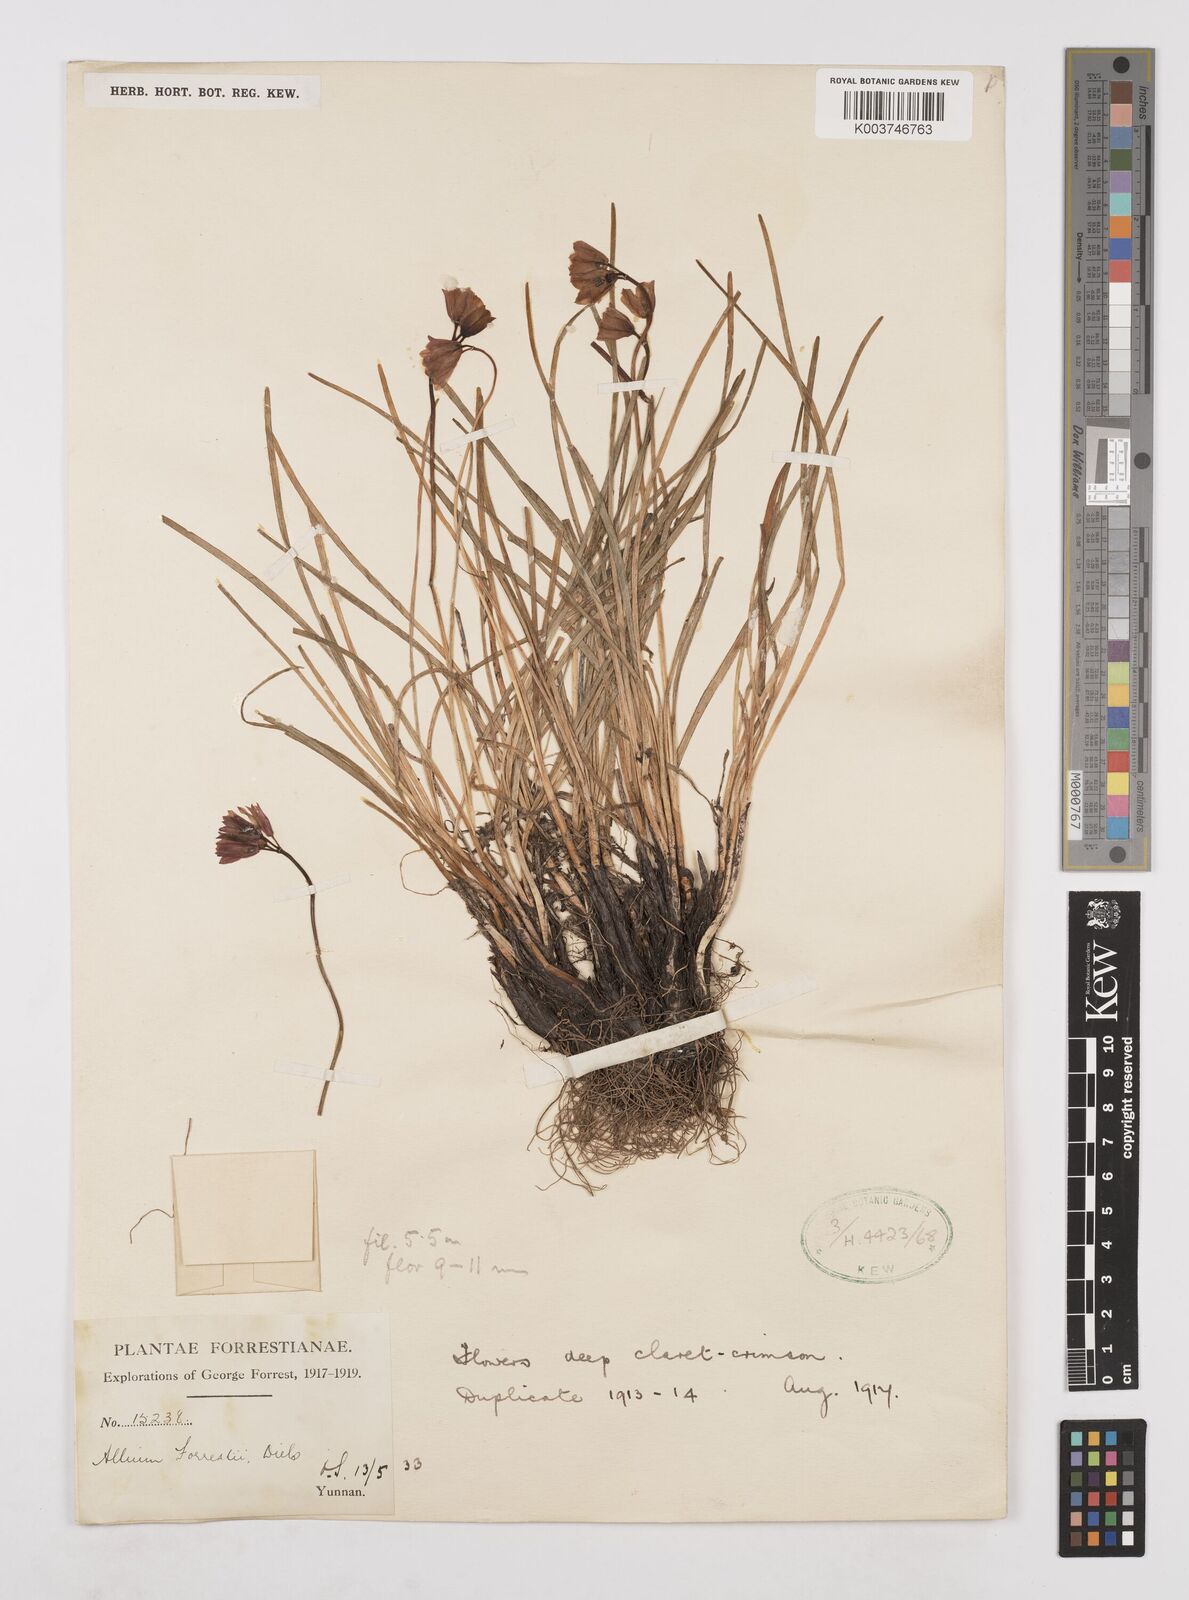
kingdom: Plantae
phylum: Tracheophyta
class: Liliopsida
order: Asparagales
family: Amaryllidaceae
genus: Allium
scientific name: Allium forrestii
